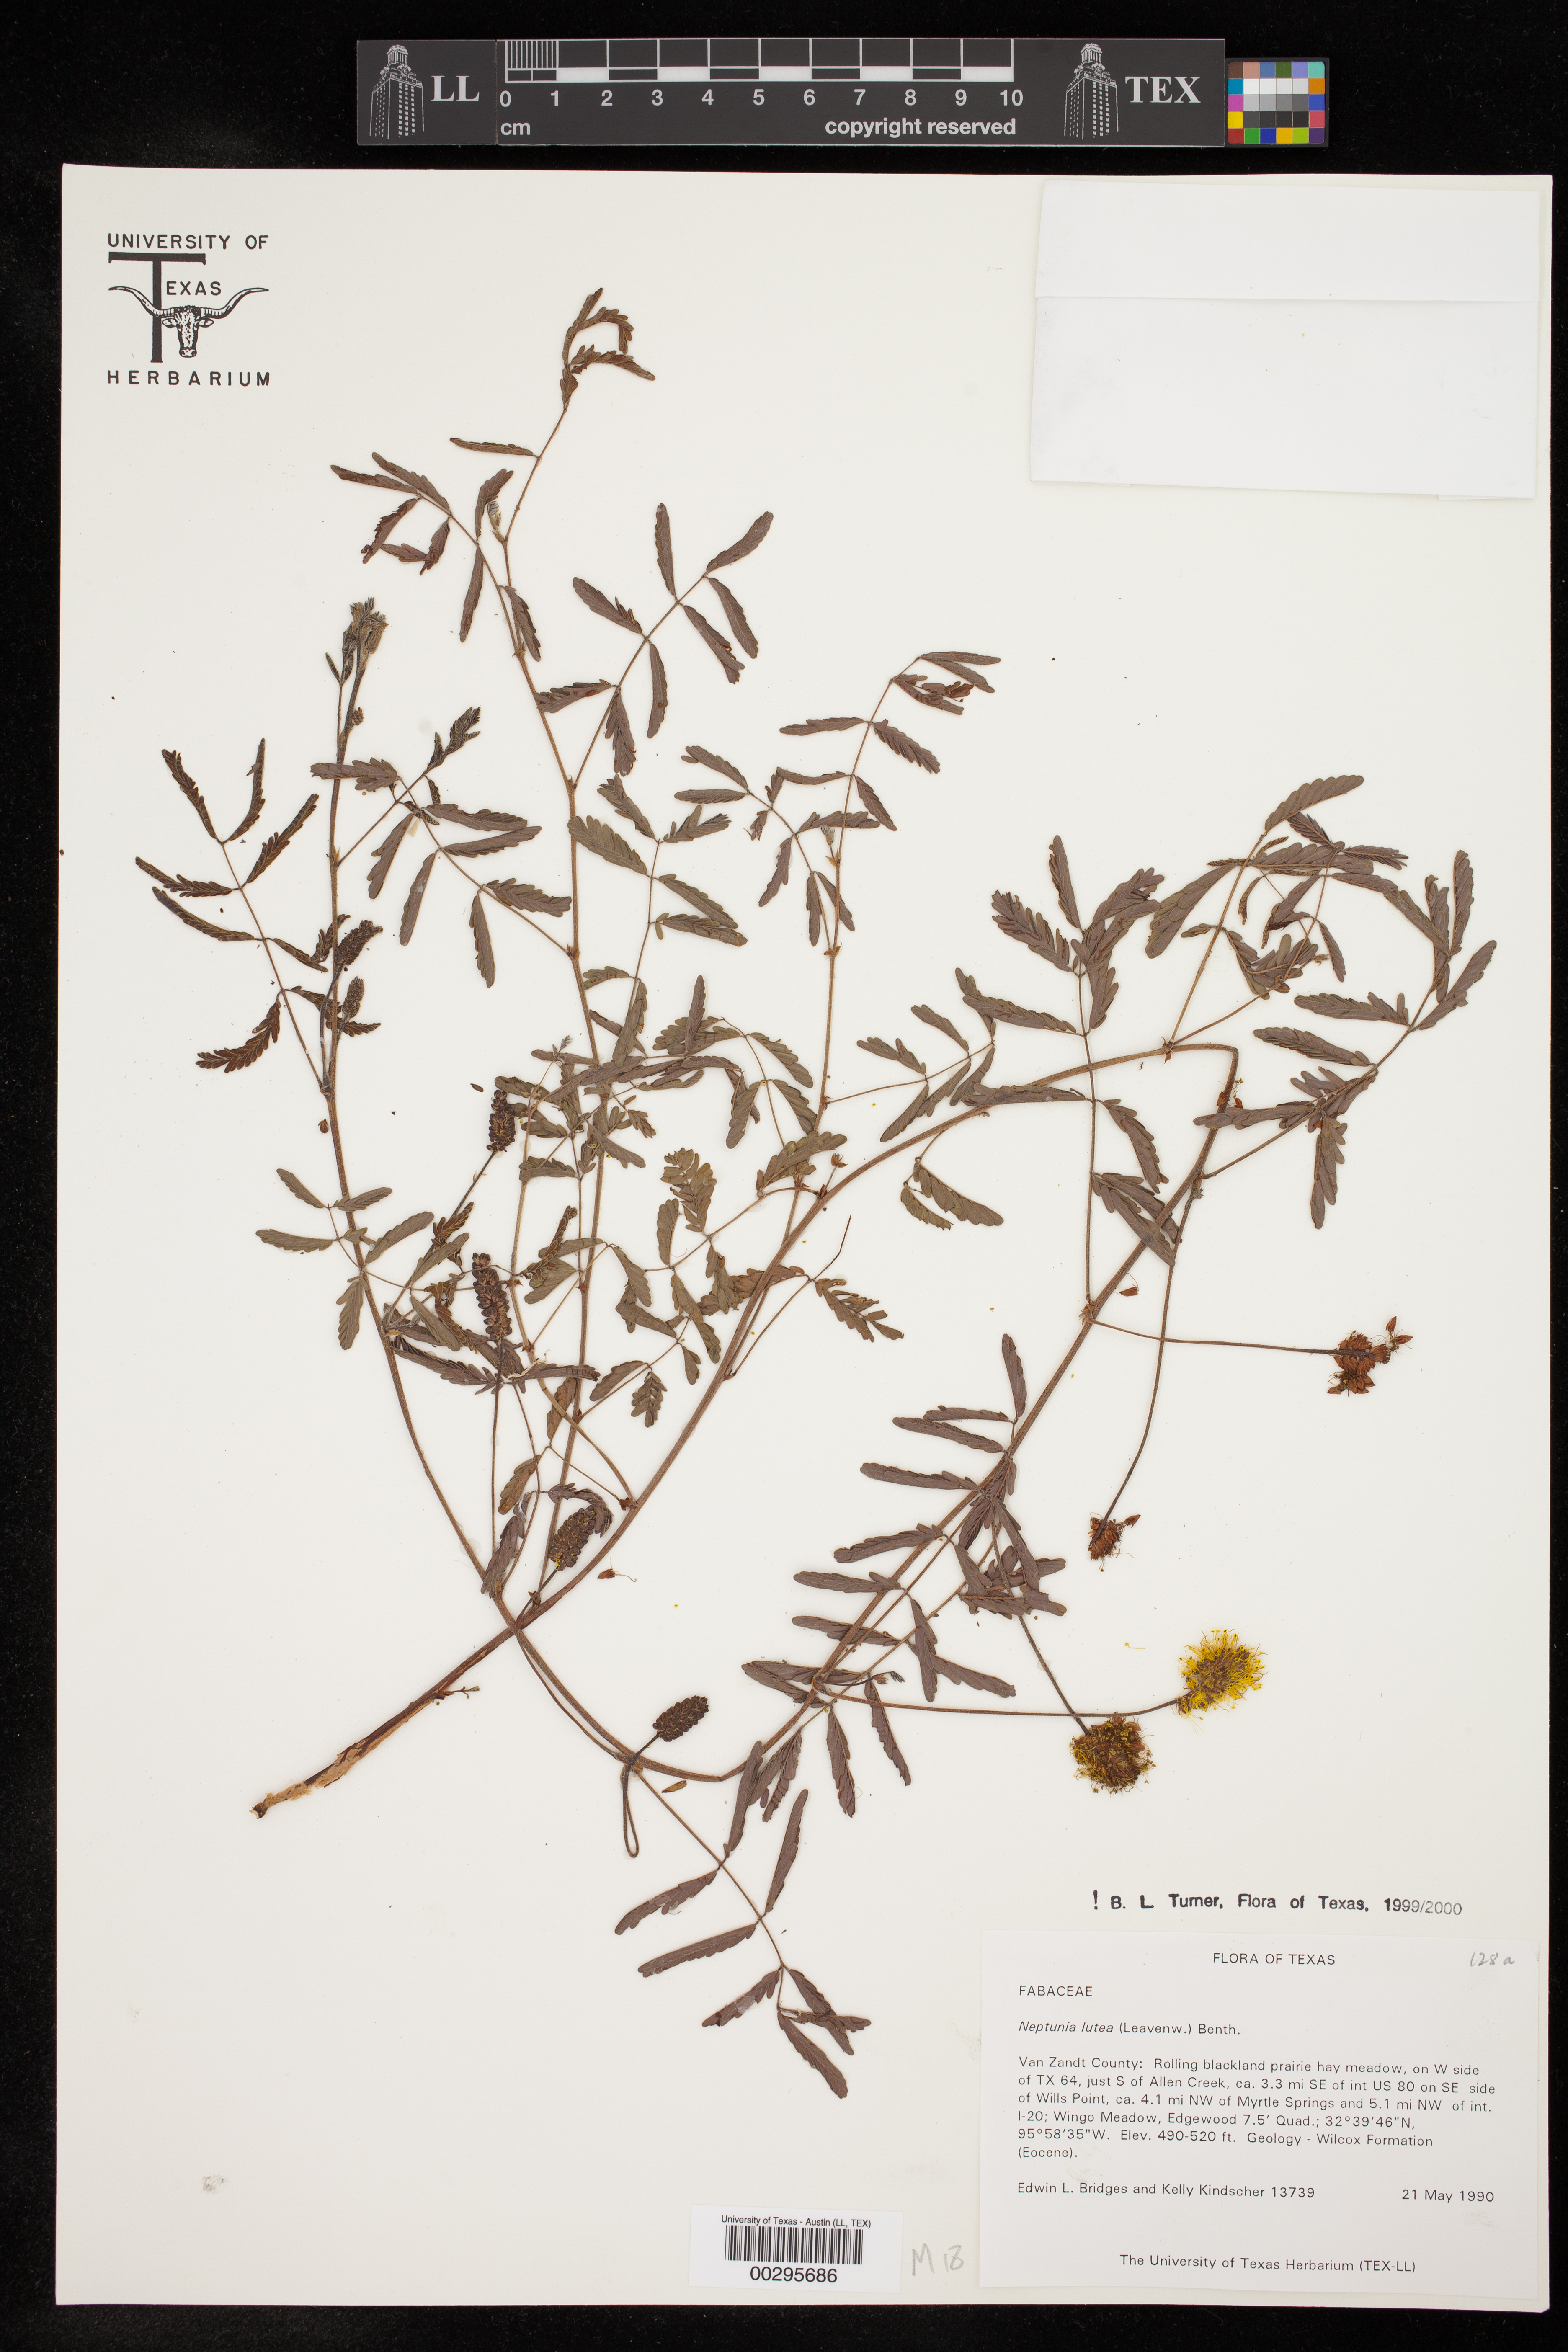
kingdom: Plantae
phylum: Tracheophyta
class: Magnoliopsida
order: Fabales
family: Fabaceae
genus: Neptunia
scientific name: Neptunia lutea
